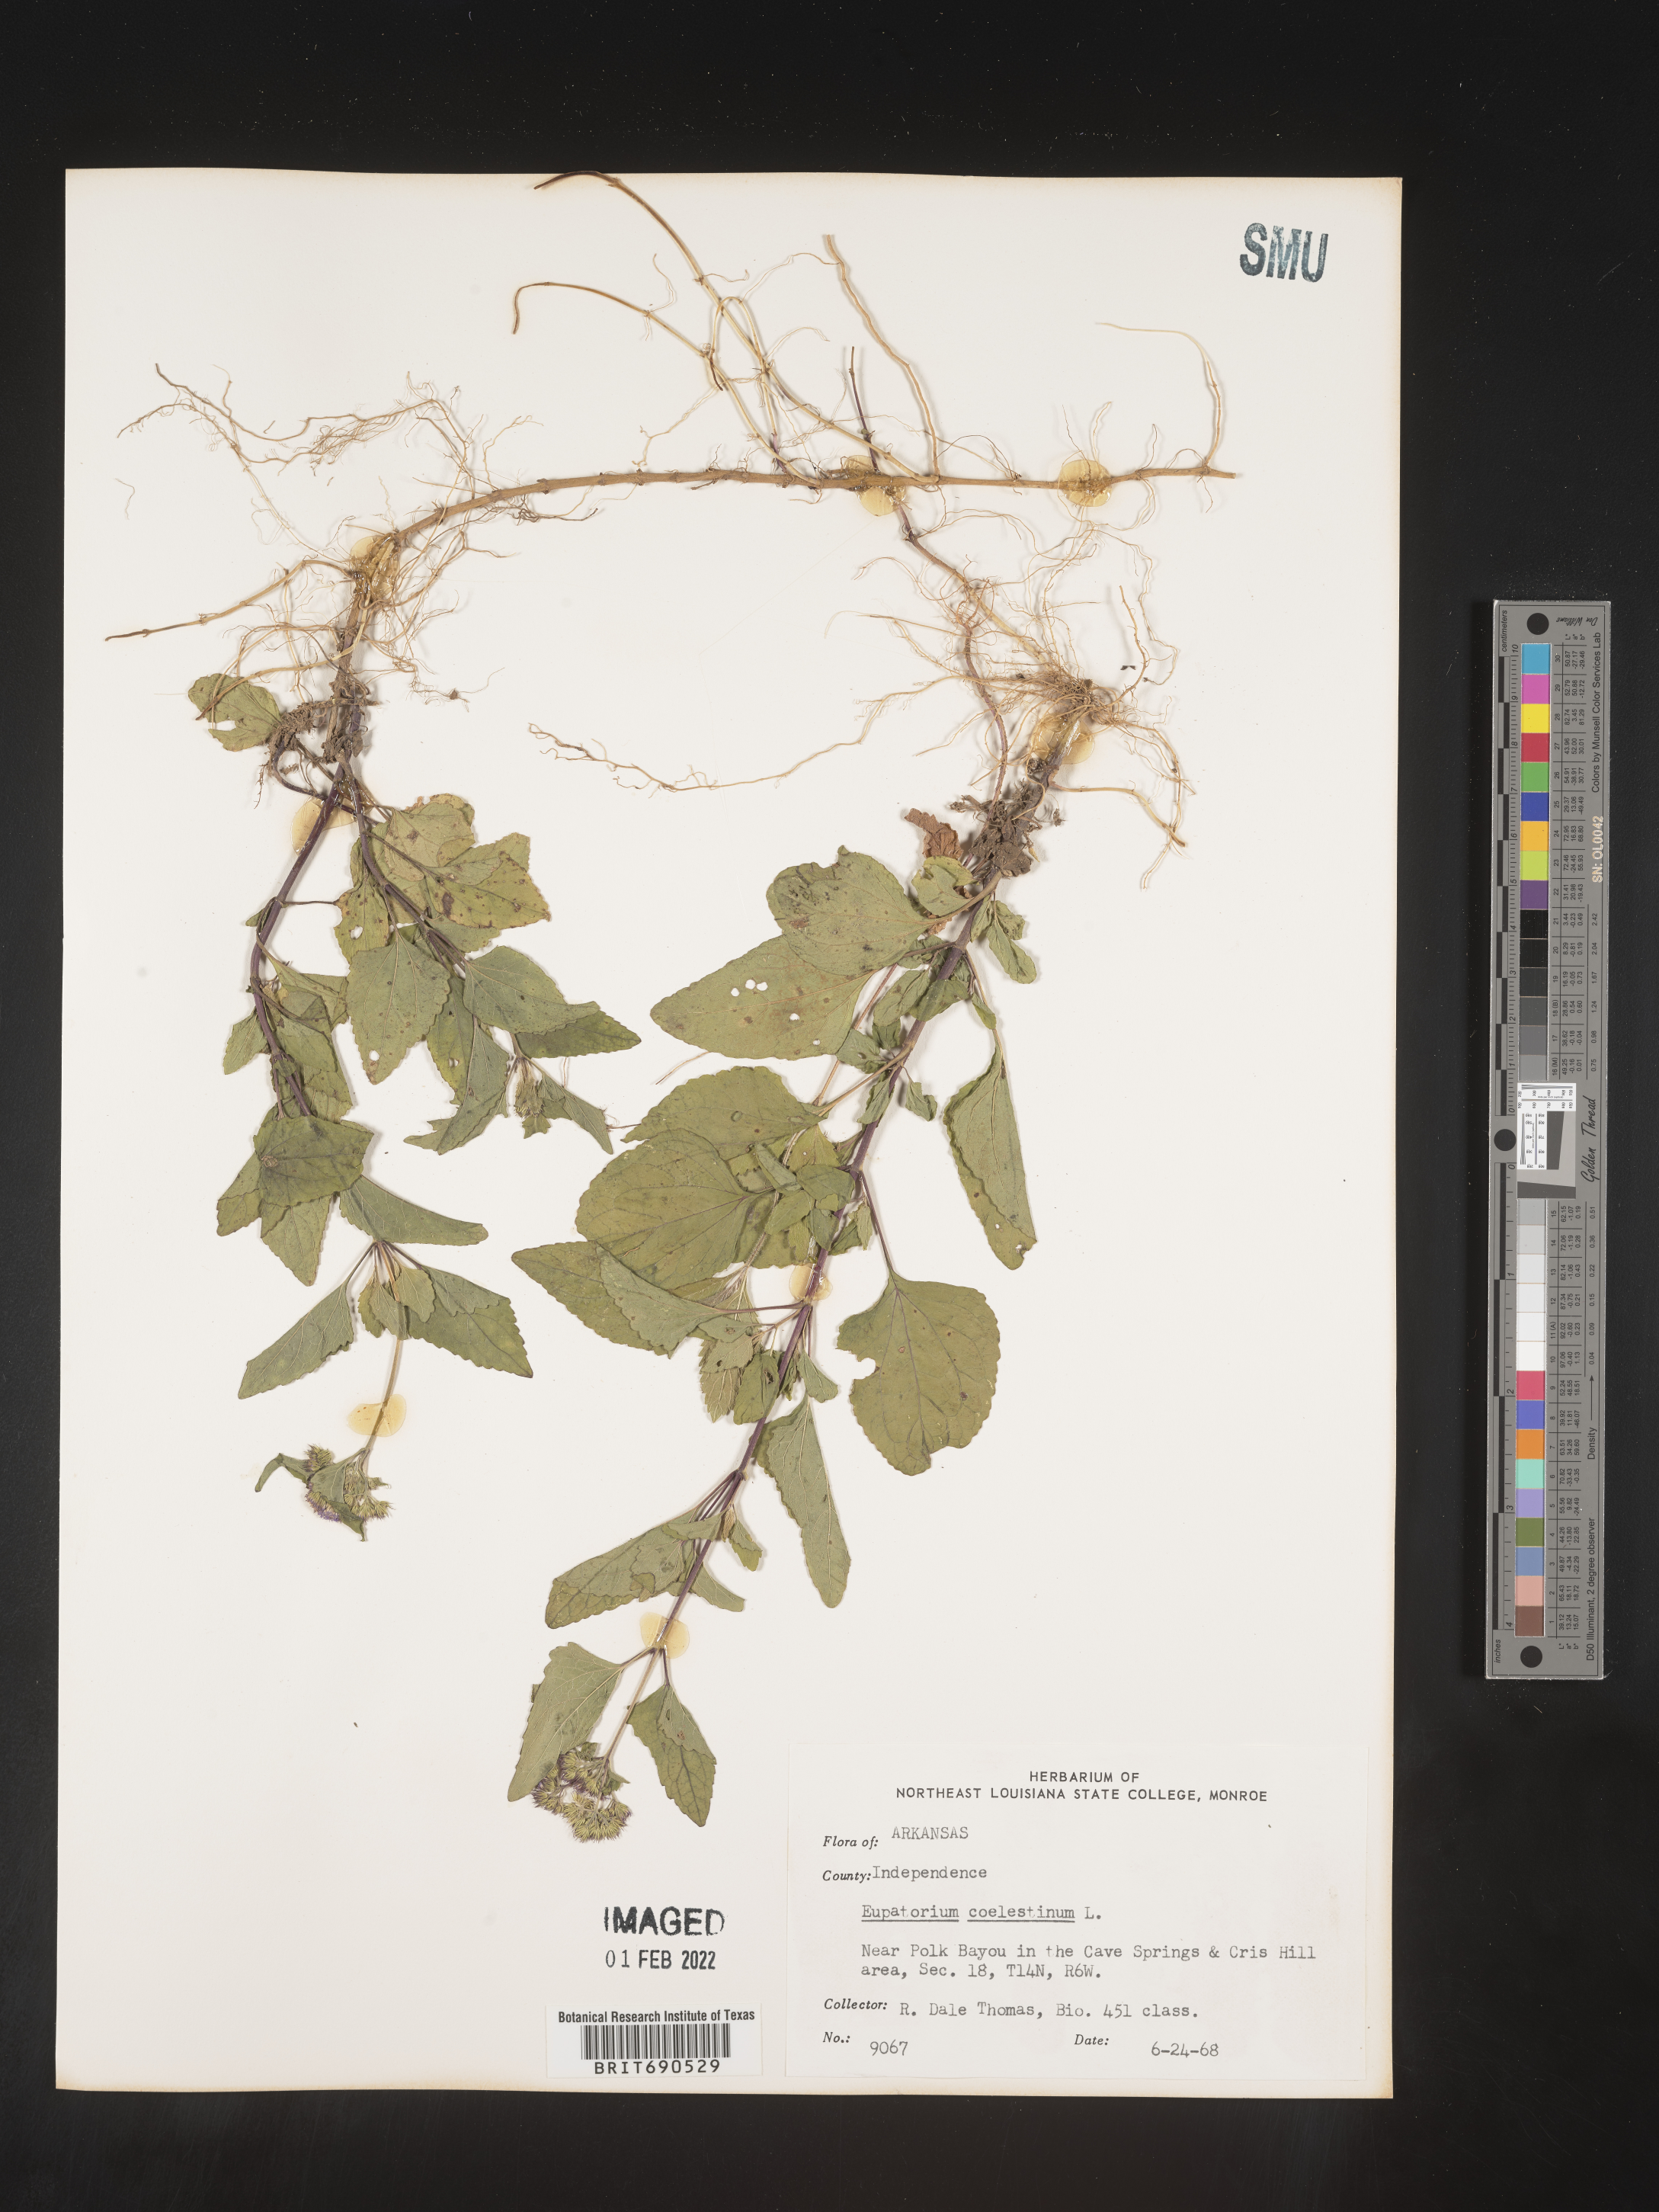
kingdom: Plantae
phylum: Tracheophyta
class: Magnoliopsida
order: Asterales
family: Asteraceae
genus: Conoclinium
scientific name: Conoclinium coelestinum
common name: Blue mistflower
